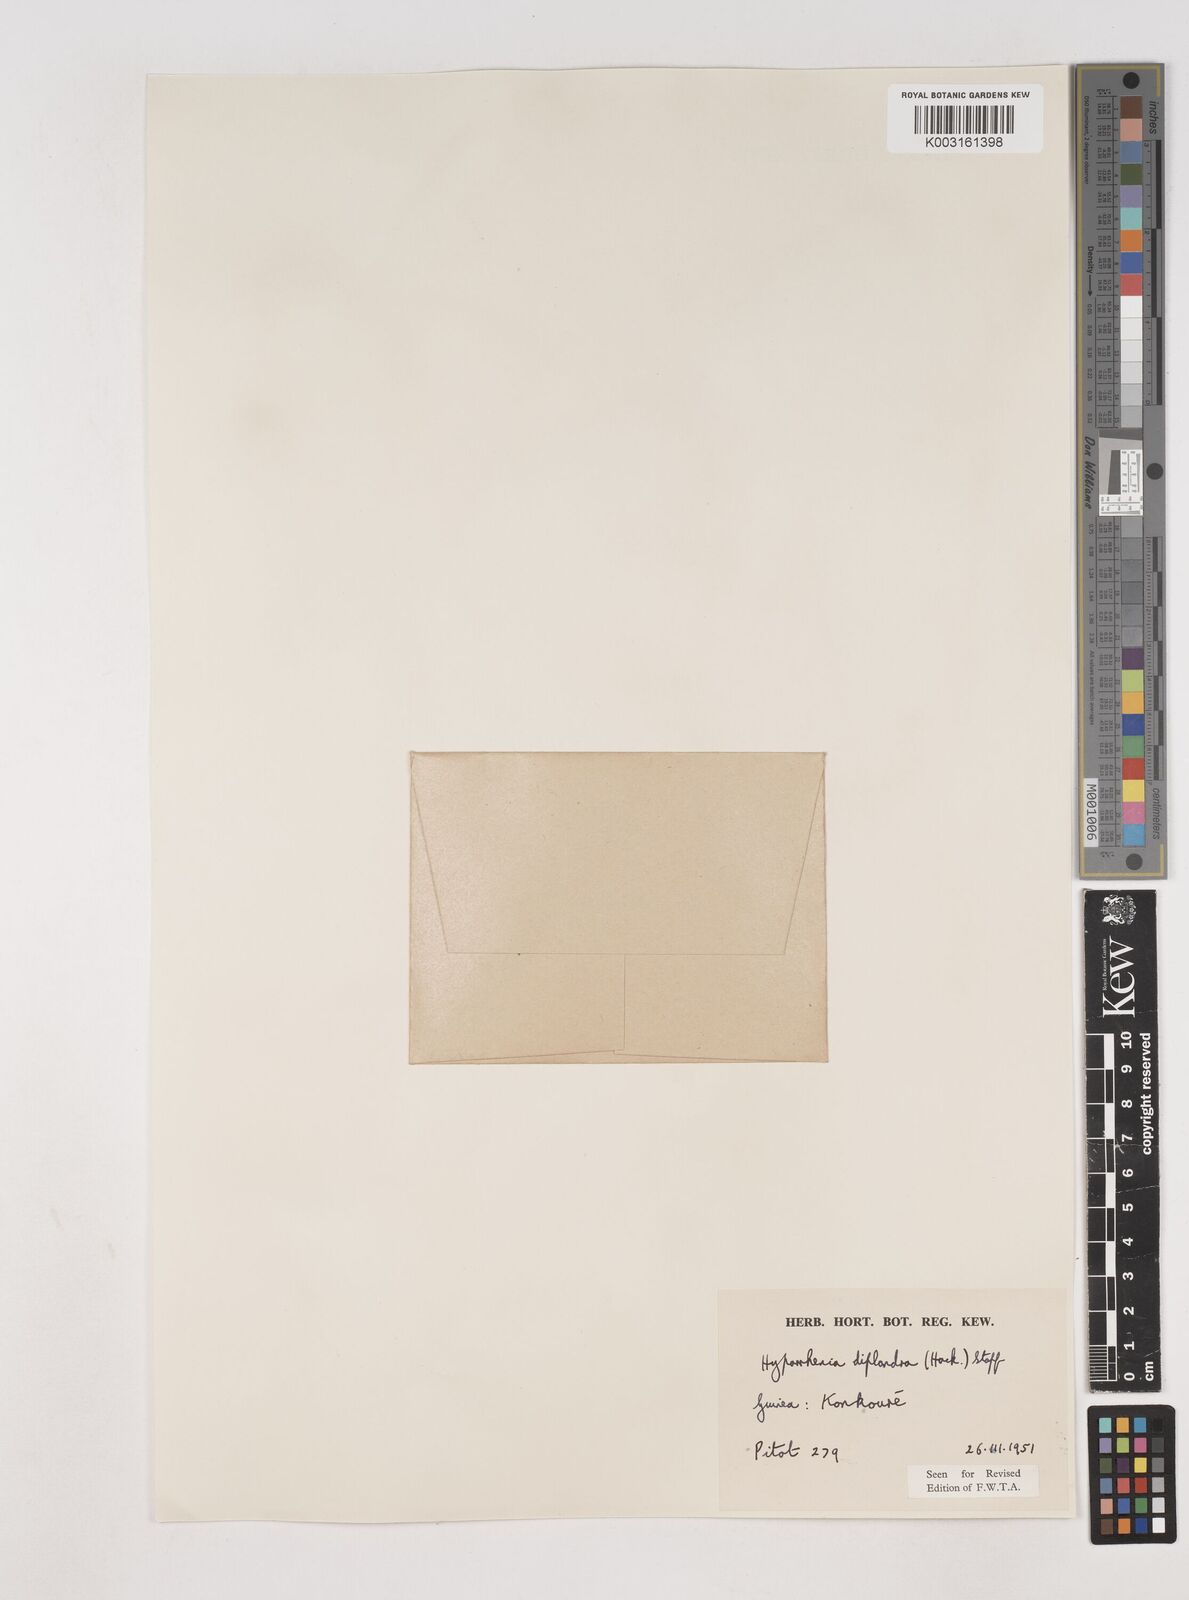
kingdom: Plantae
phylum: Tracheophyta
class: Liliopsida
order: Poales
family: Poaceae
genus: Hyparrhenia
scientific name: Hyparrhenia diplandra
